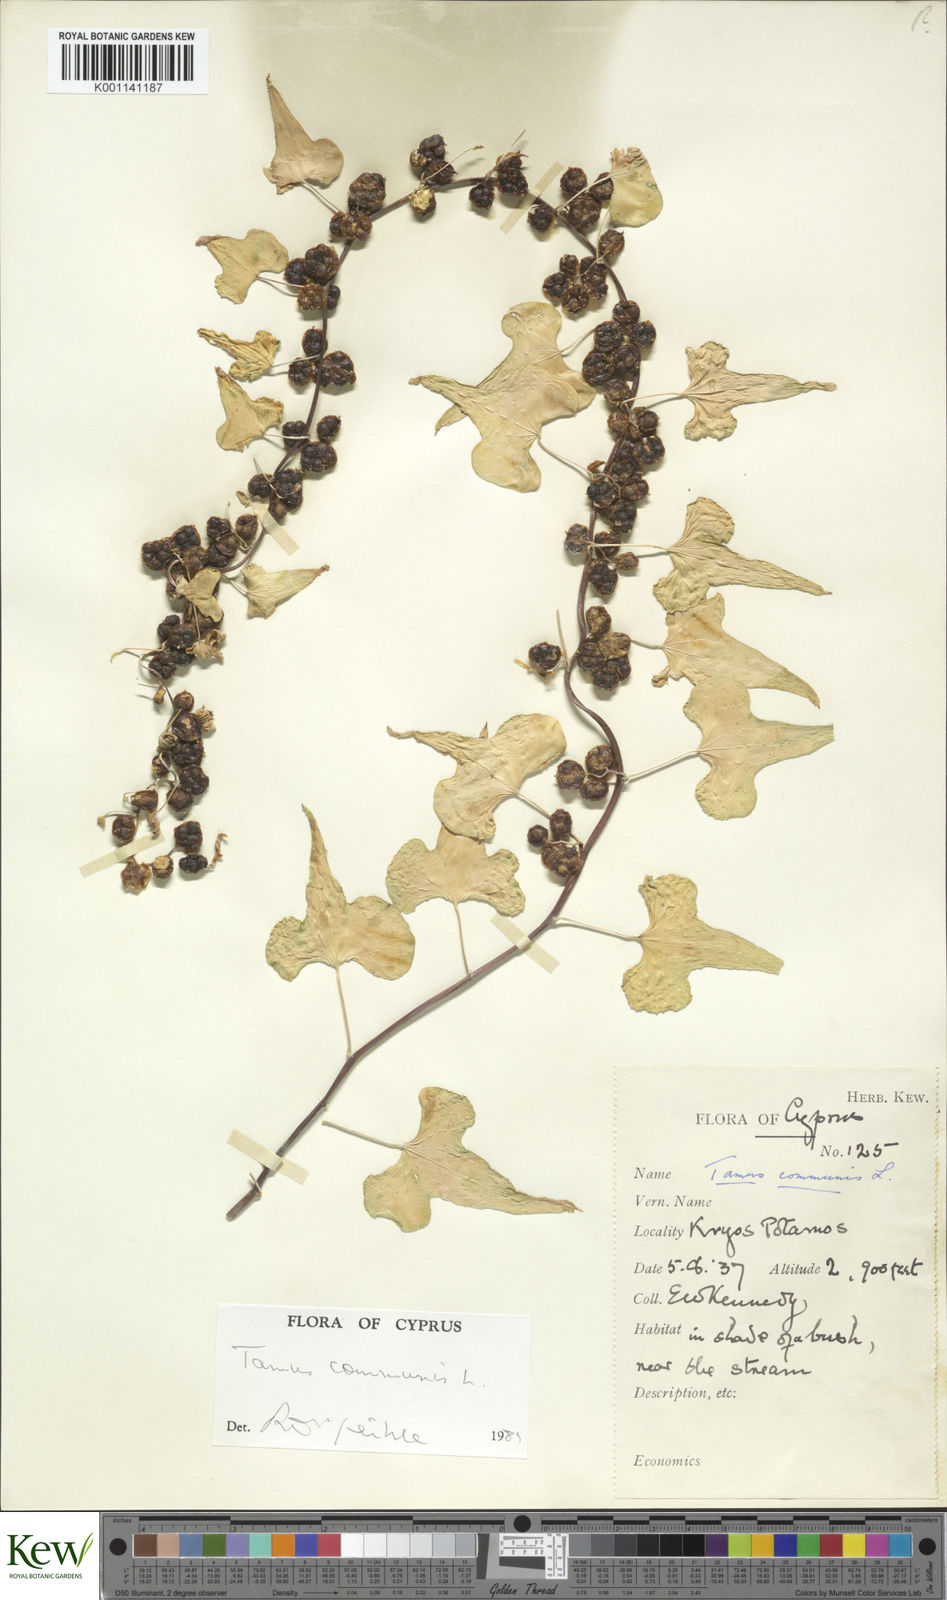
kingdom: Plantae
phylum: Tracheophyta
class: Liliopsida
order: Dioscoreales
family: Dioscoreaceae
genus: Dioscorea
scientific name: Dioscorea communis
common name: Black-bindweed
